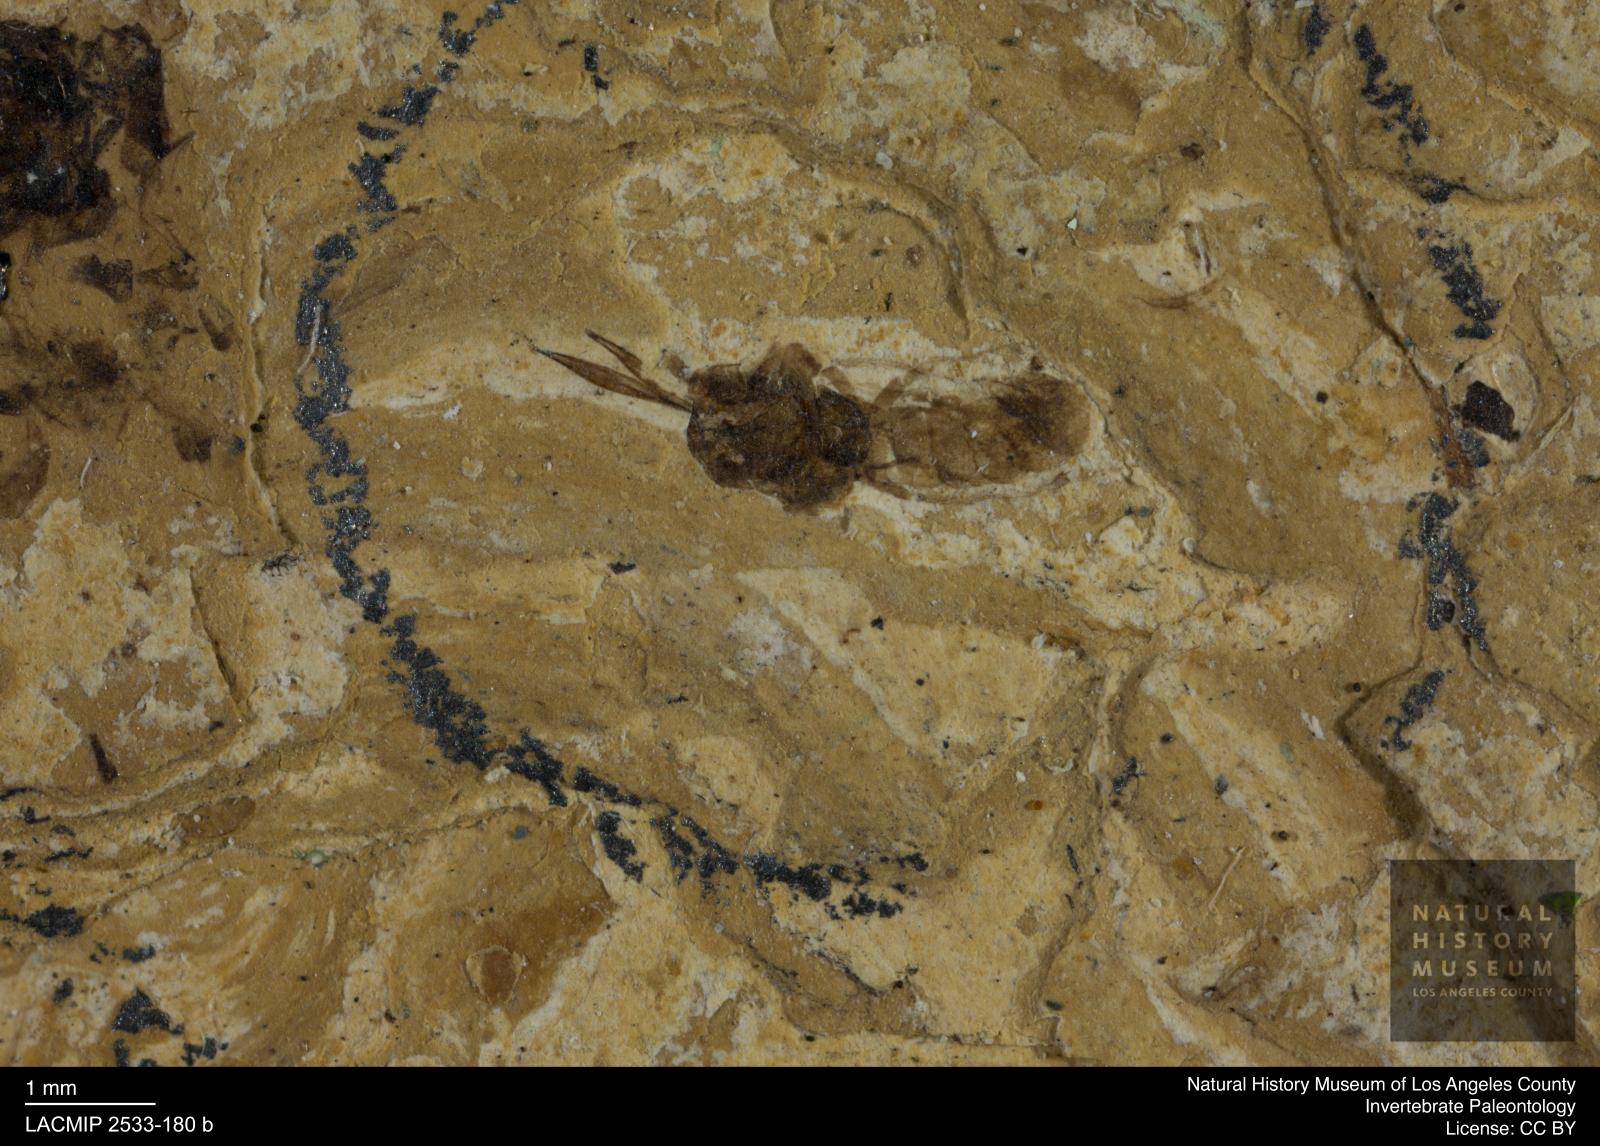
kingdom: Animalia
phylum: Arthropoda
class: Insecta
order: Hemiptera
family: Cicadellidae
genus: Oligoidiocerus
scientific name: Oligoidiocerus pronotumalis
